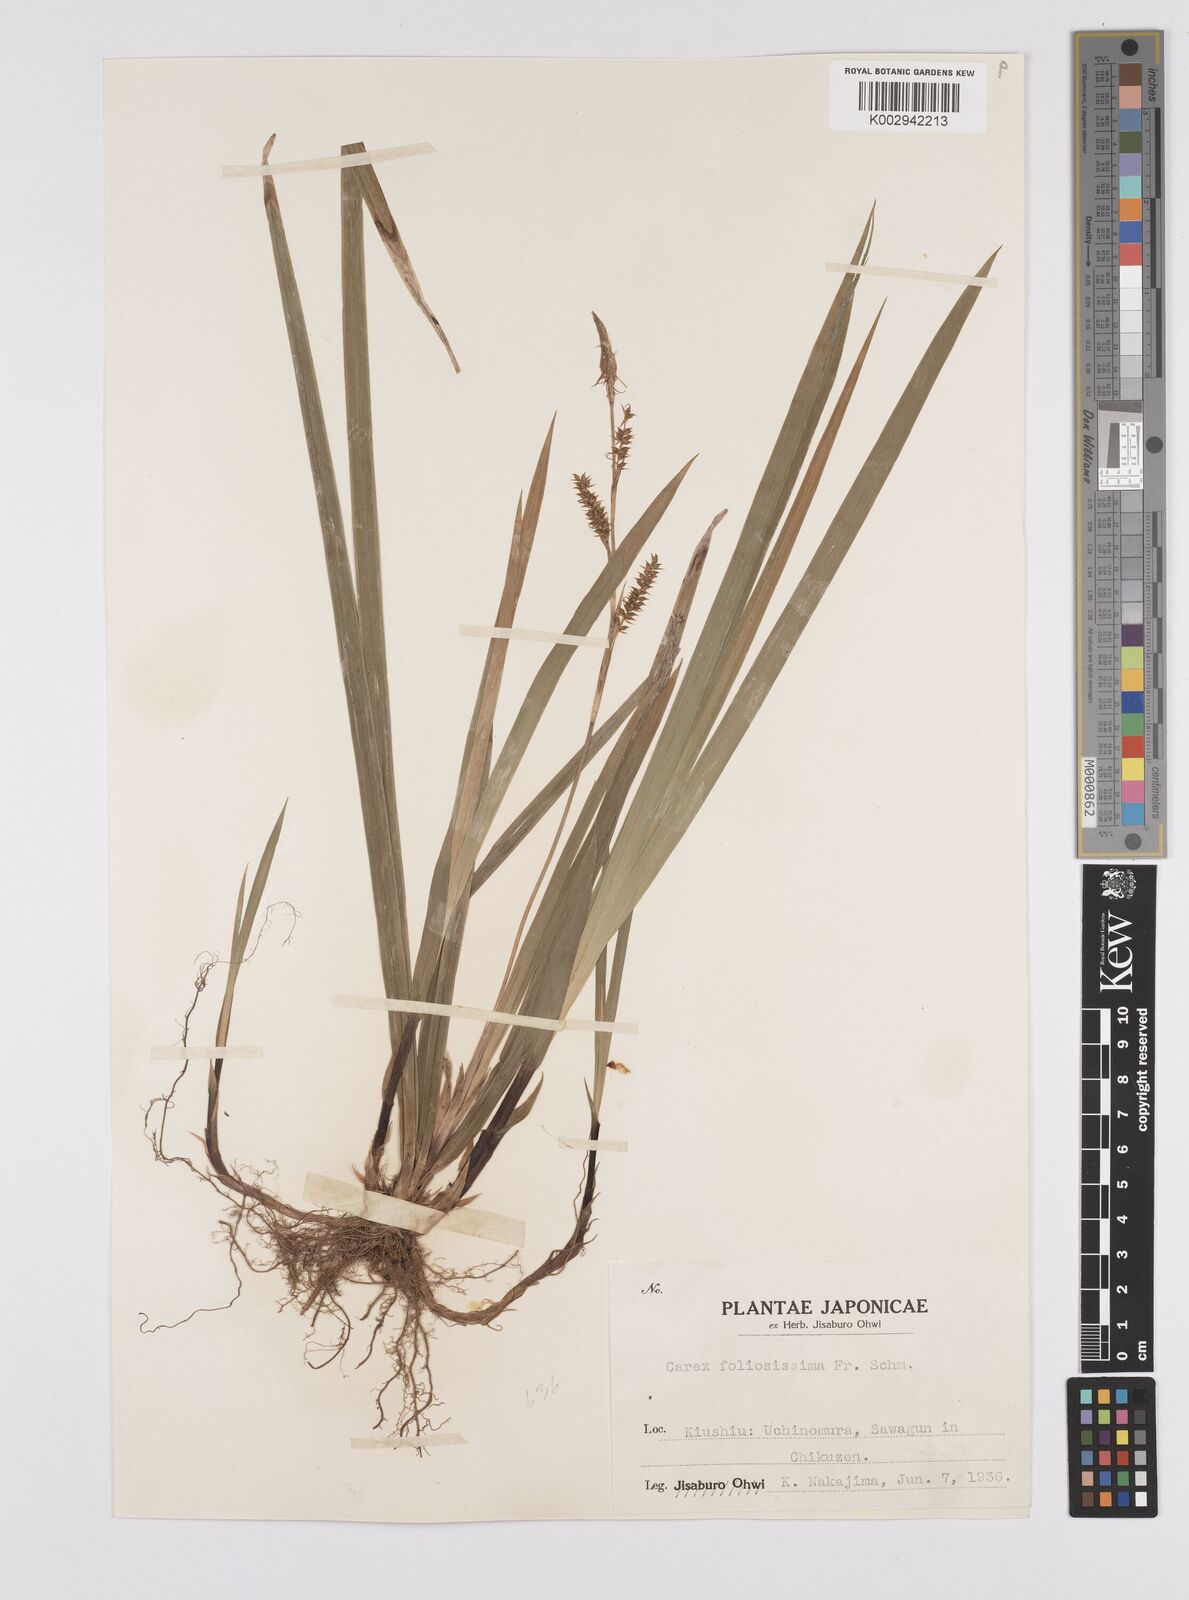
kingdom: Plantae
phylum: Tracheophyta
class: Liliopsida
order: Poales
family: Cyperaceae
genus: Carex
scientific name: Carex morrowii
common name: Japanese sedge
